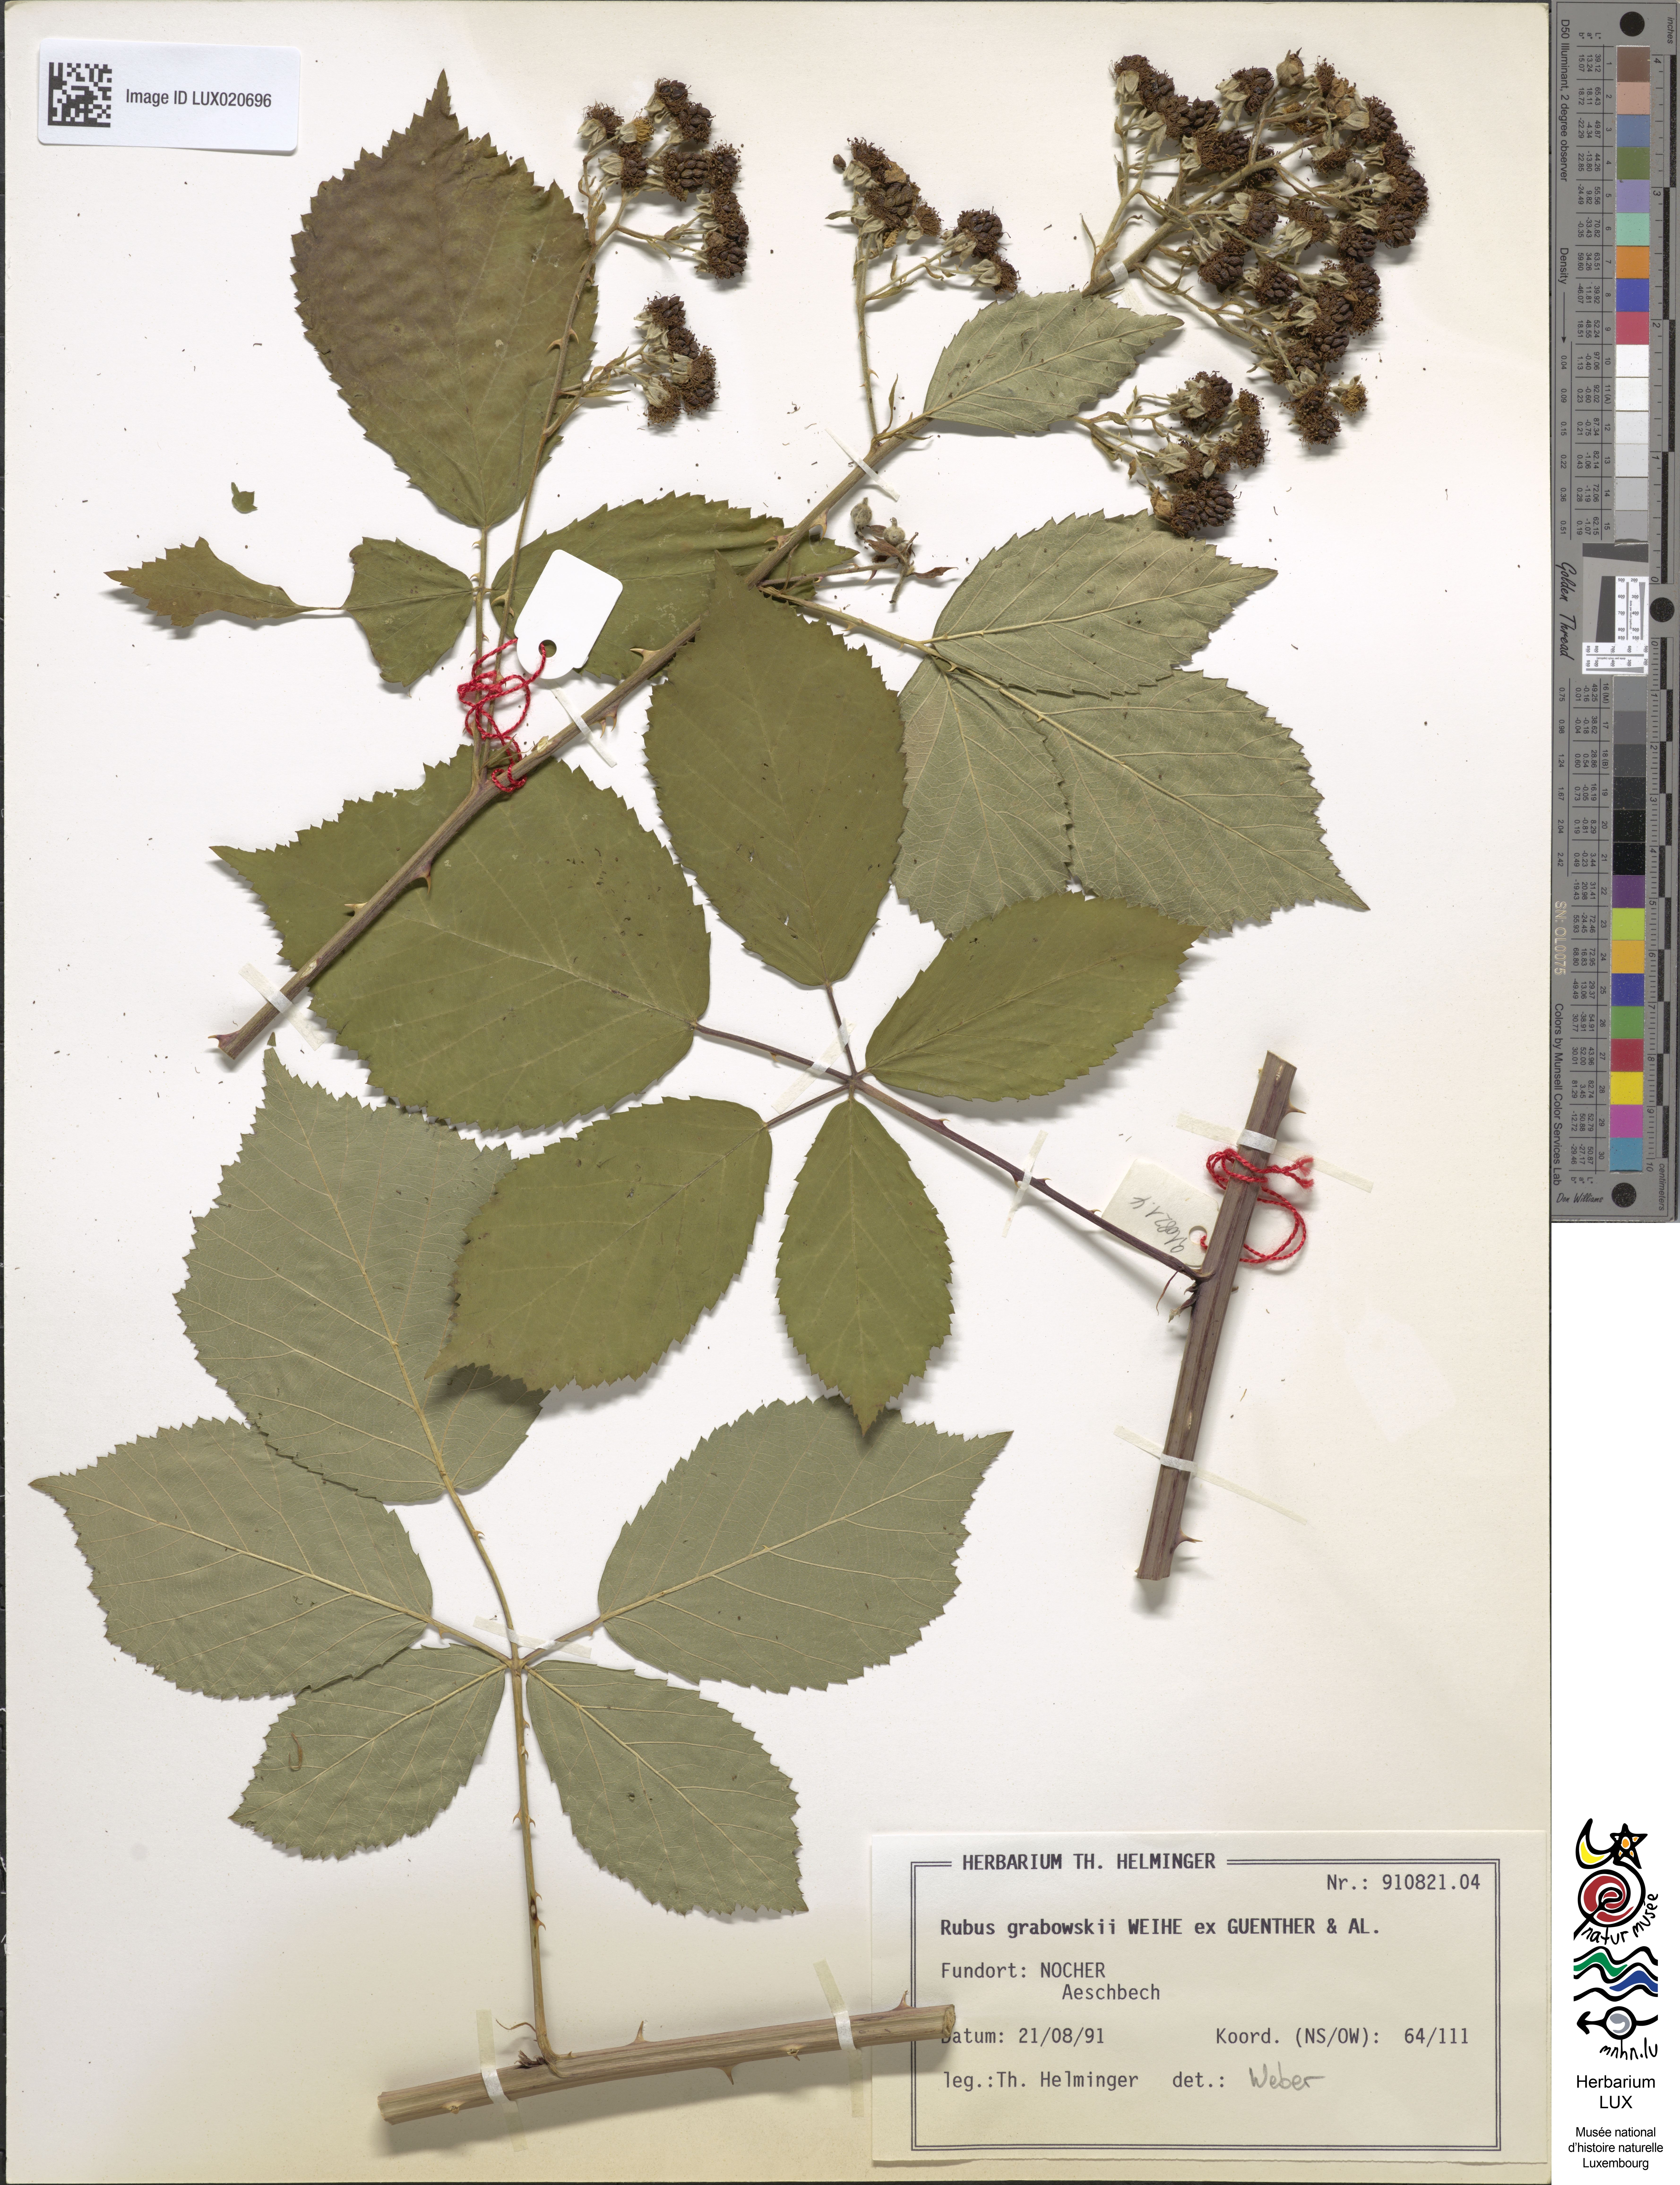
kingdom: Plantae
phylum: Tracheophyta
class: Magnoliopsida
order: Rosales
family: Rosaceae
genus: Rubus
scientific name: Rubus grabowskii
